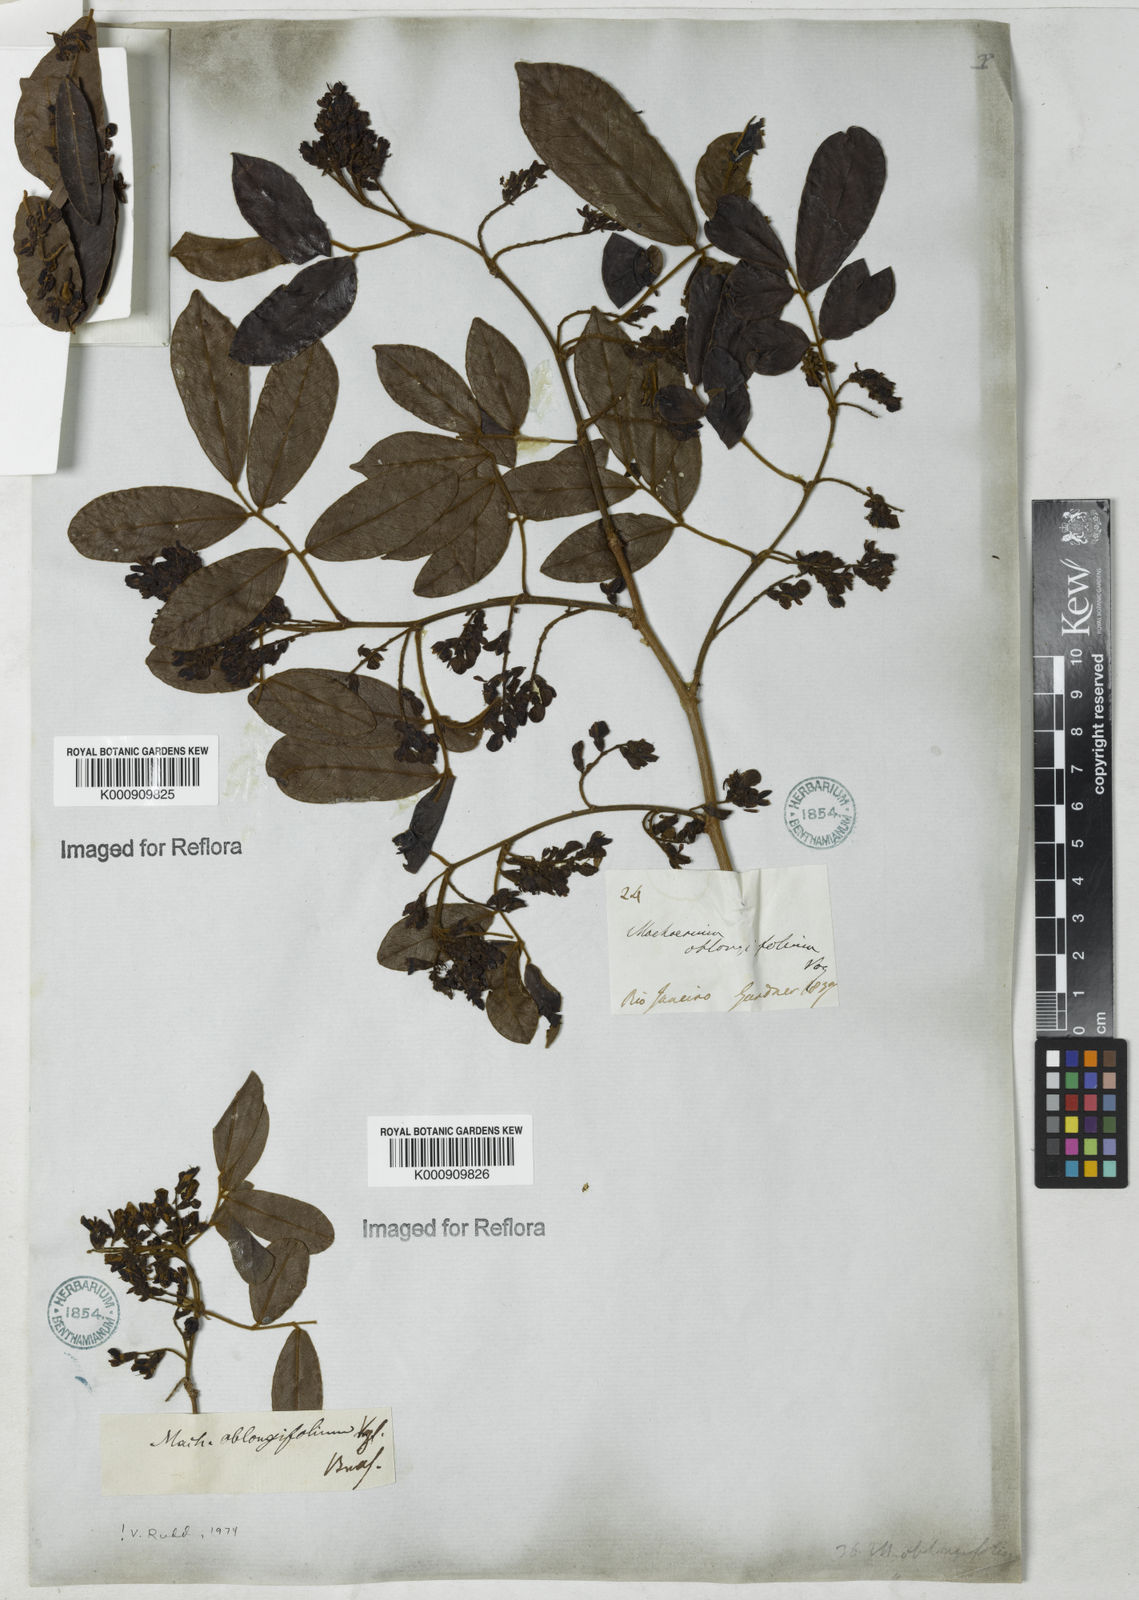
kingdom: Plantae
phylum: Tracheophyta
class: Magnoliopsida
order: Fabales
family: Fabaceae
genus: Machaerium
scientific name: Machaerium oblongifolium
